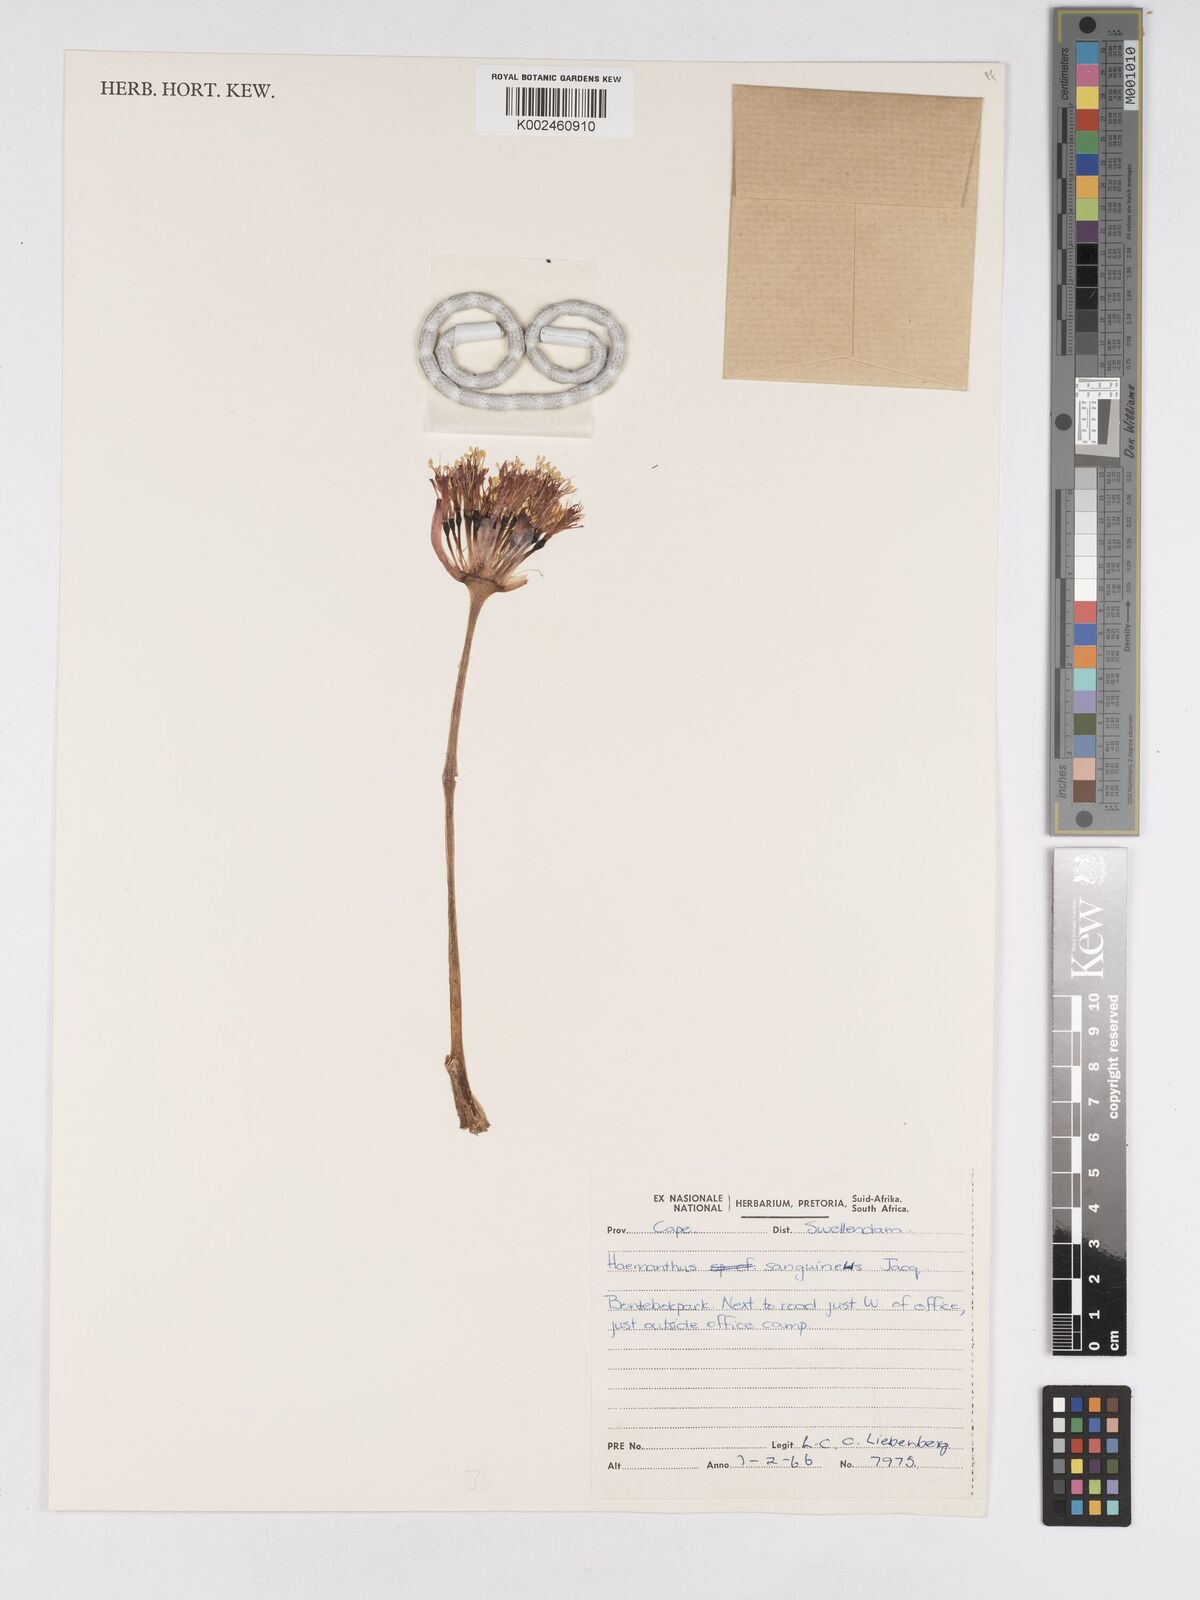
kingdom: Plantae
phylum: Tracheophyta
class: Liliopsida
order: Asparagales
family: Amaryllidaceae
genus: Haemanthus
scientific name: Haemanthus sanguineus
